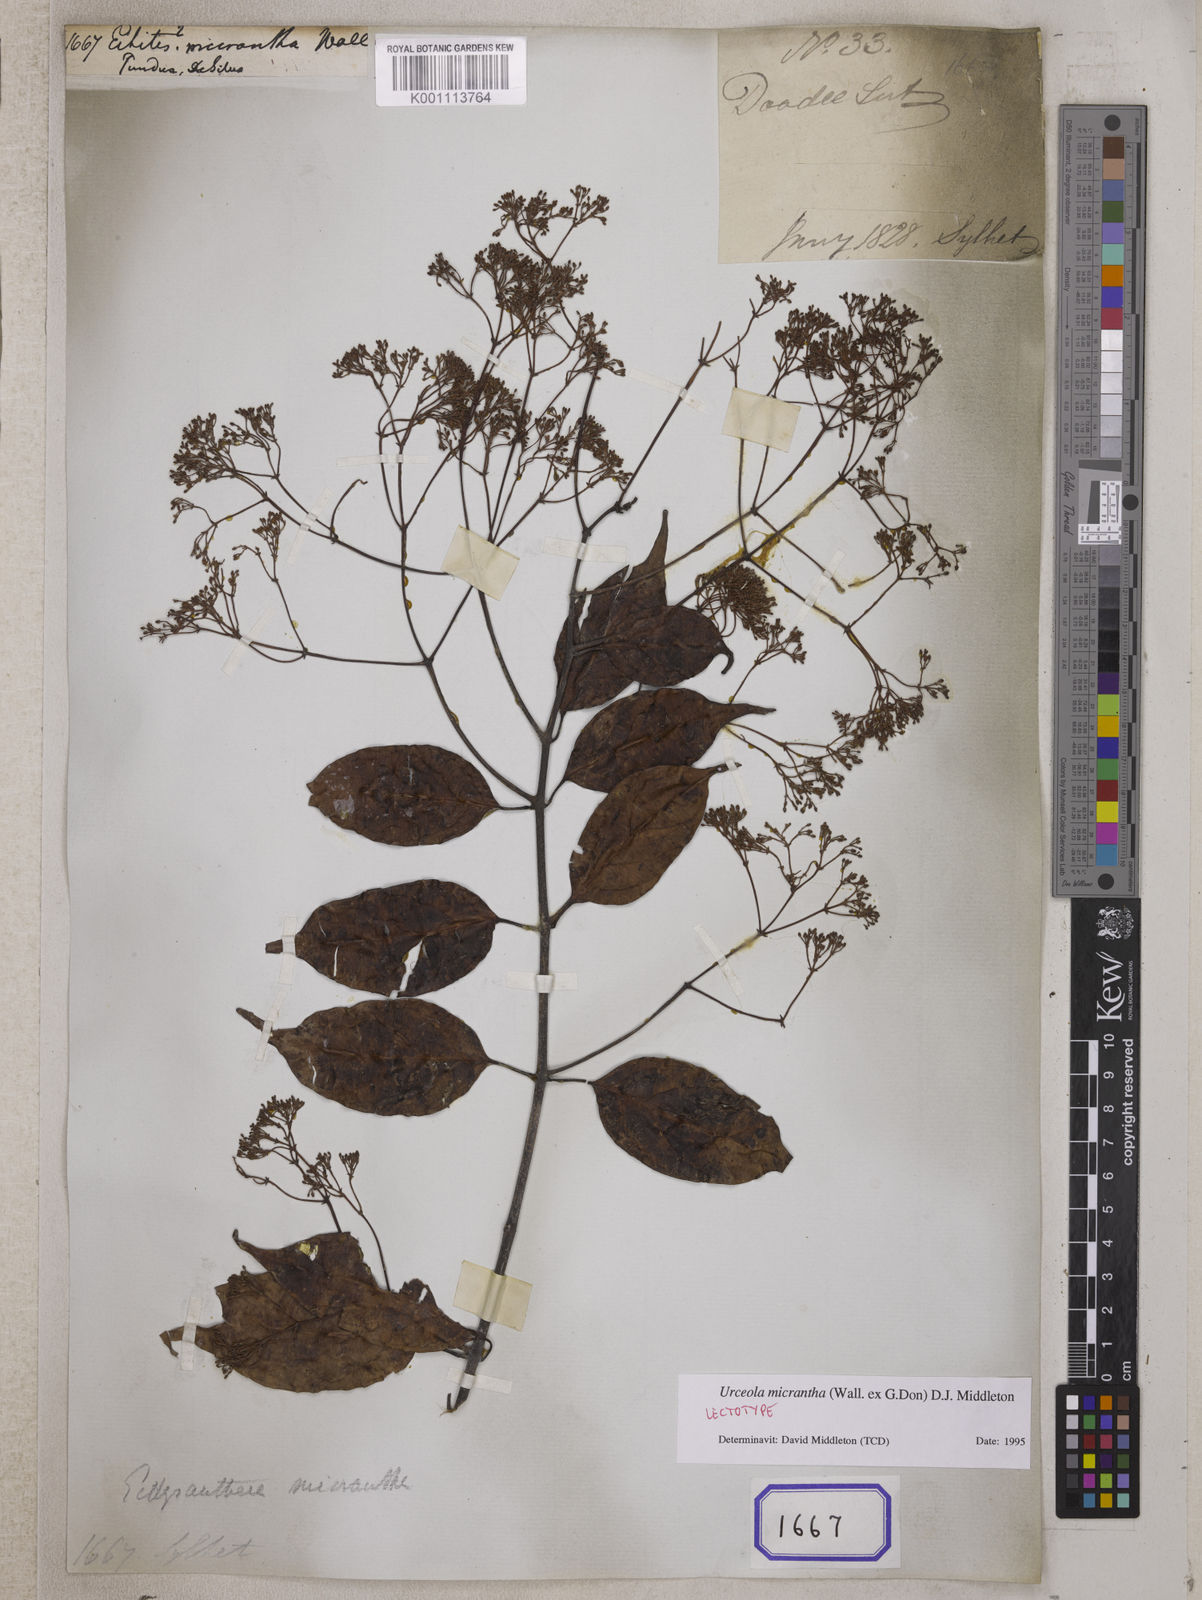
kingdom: Plantae
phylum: Tracheophyta
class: Magnoliopsida
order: Gentianales
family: Apocynaceae
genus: Echites
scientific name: Echites
